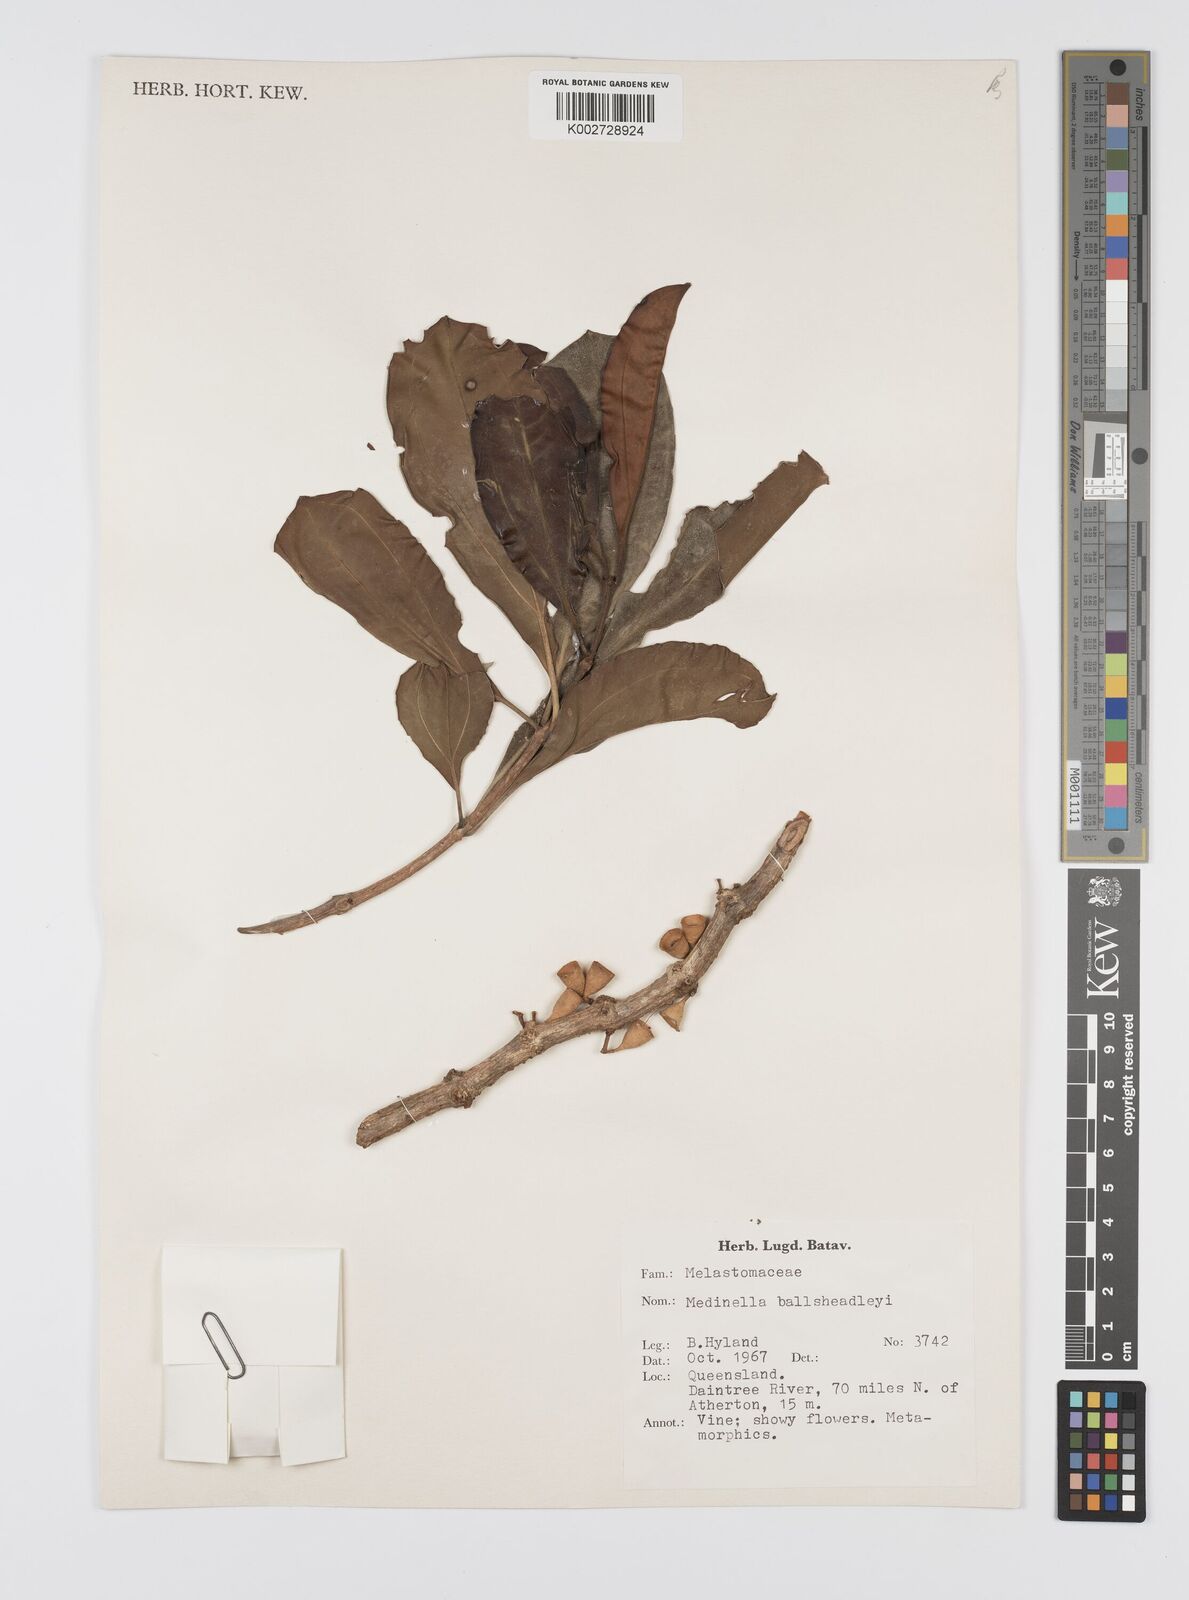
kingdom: Plantae
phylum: Tracheophyta
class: Magnoliopsida
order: Myrtales
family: Melastomataceae
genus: Medinilla
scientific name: Medinilla balls-headleyi
